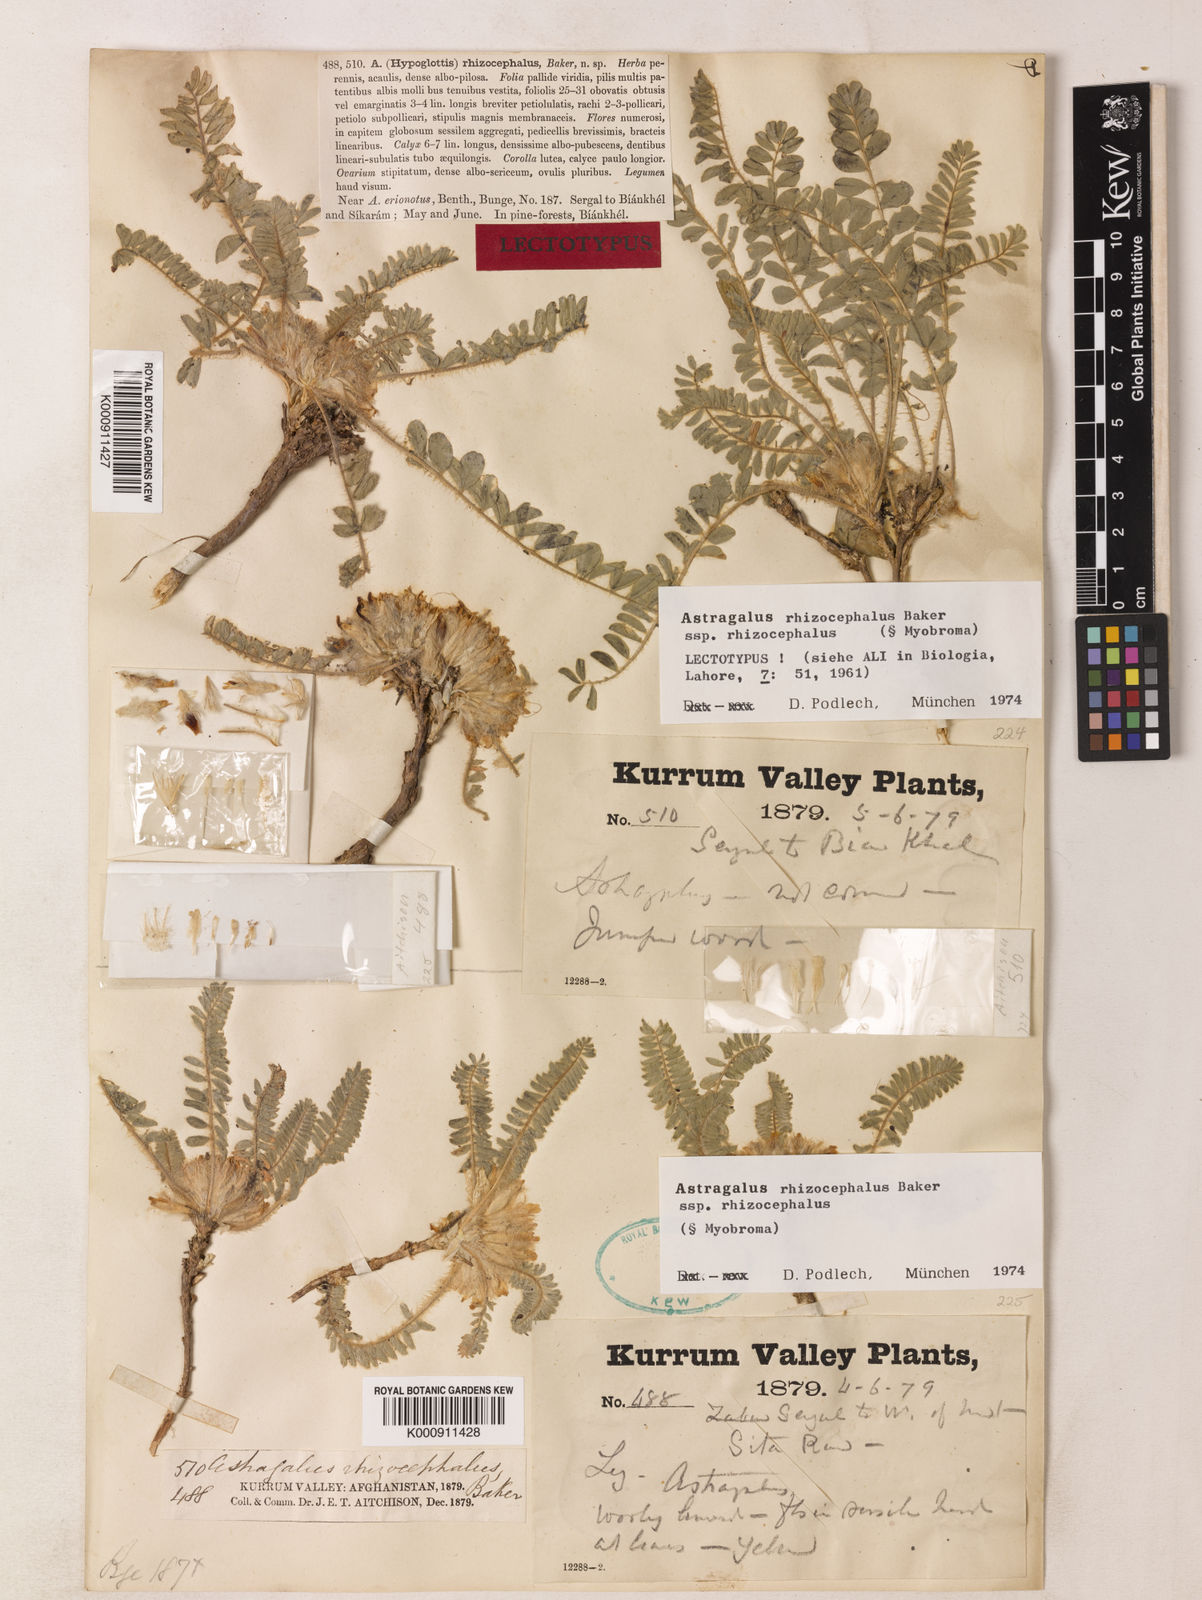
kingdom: Plantae
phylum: Tracheophyta
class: Magnoliopsida
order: Fabales
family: Fabaceae
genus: Astragalus
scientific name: Astragalus
